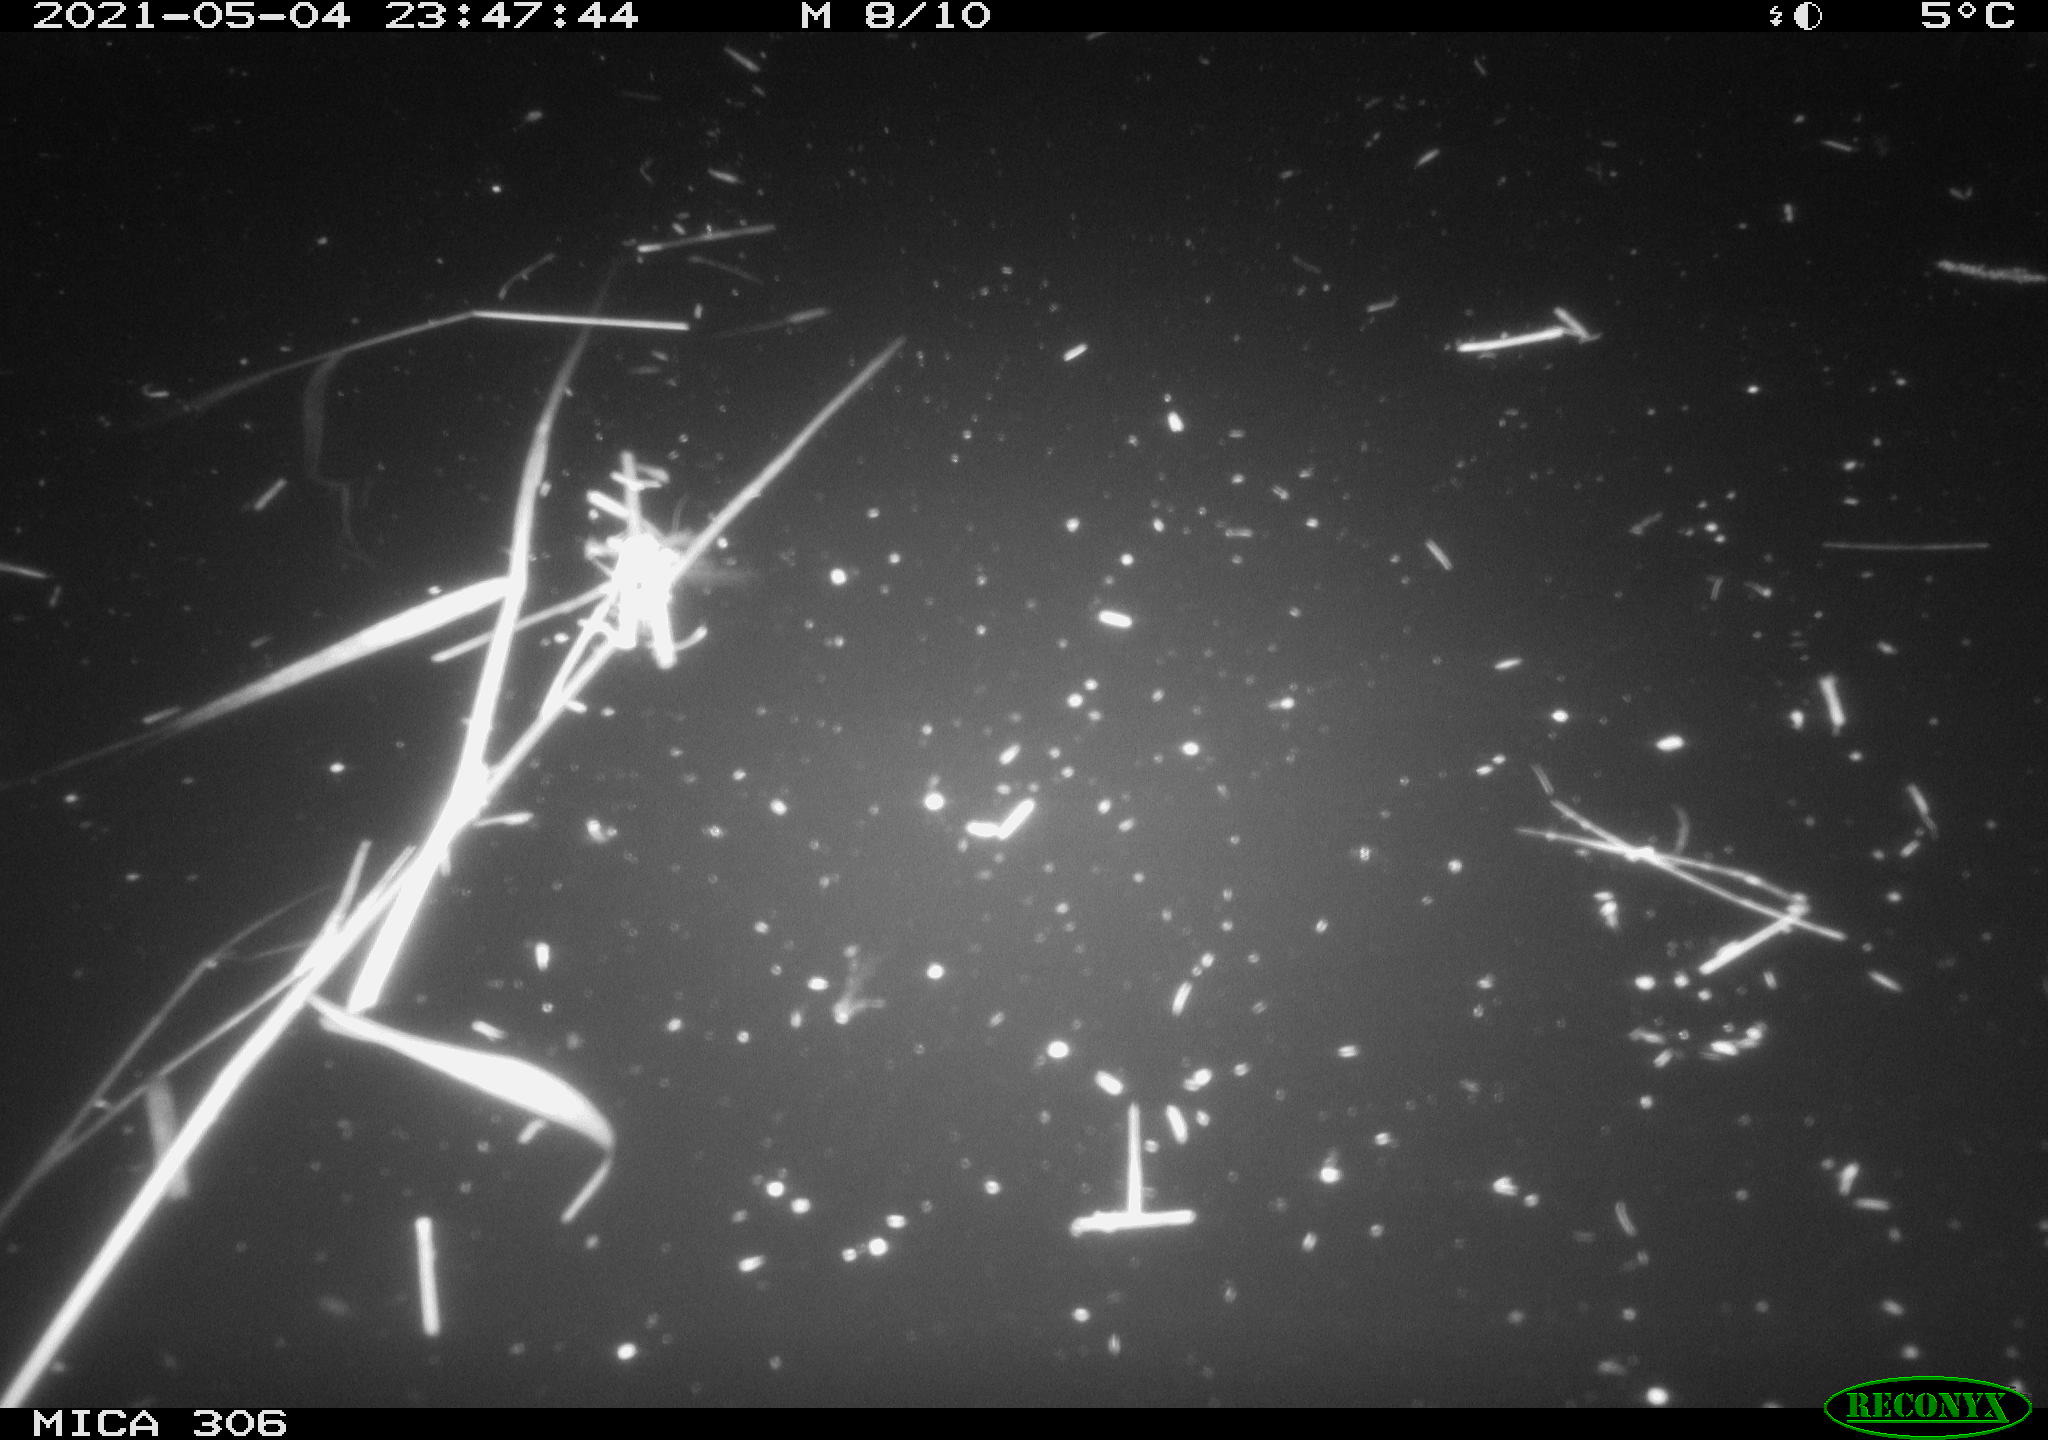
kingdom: Animalia
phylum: Chordata
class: Mammalia
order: Rodentia
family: Cricetidae
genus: Ondatra
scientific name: Ondatra zibethicus
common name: Muskrat
